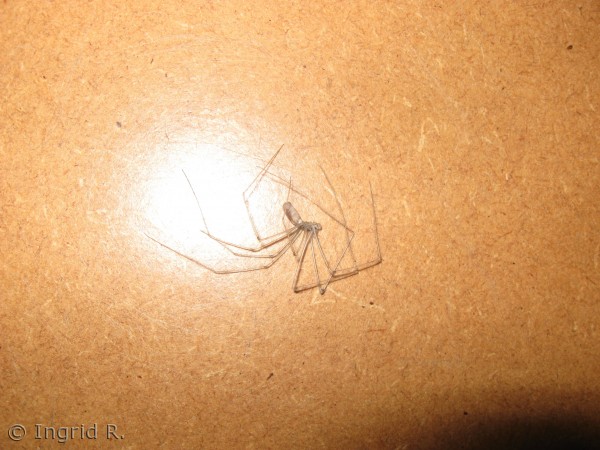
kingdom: Animalia
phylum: Arthropoda
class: Arachnida
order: Araneae
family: Pholcidae
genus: Pholcus
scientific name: Pholcus phalangioides
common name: Mejeredderkop
